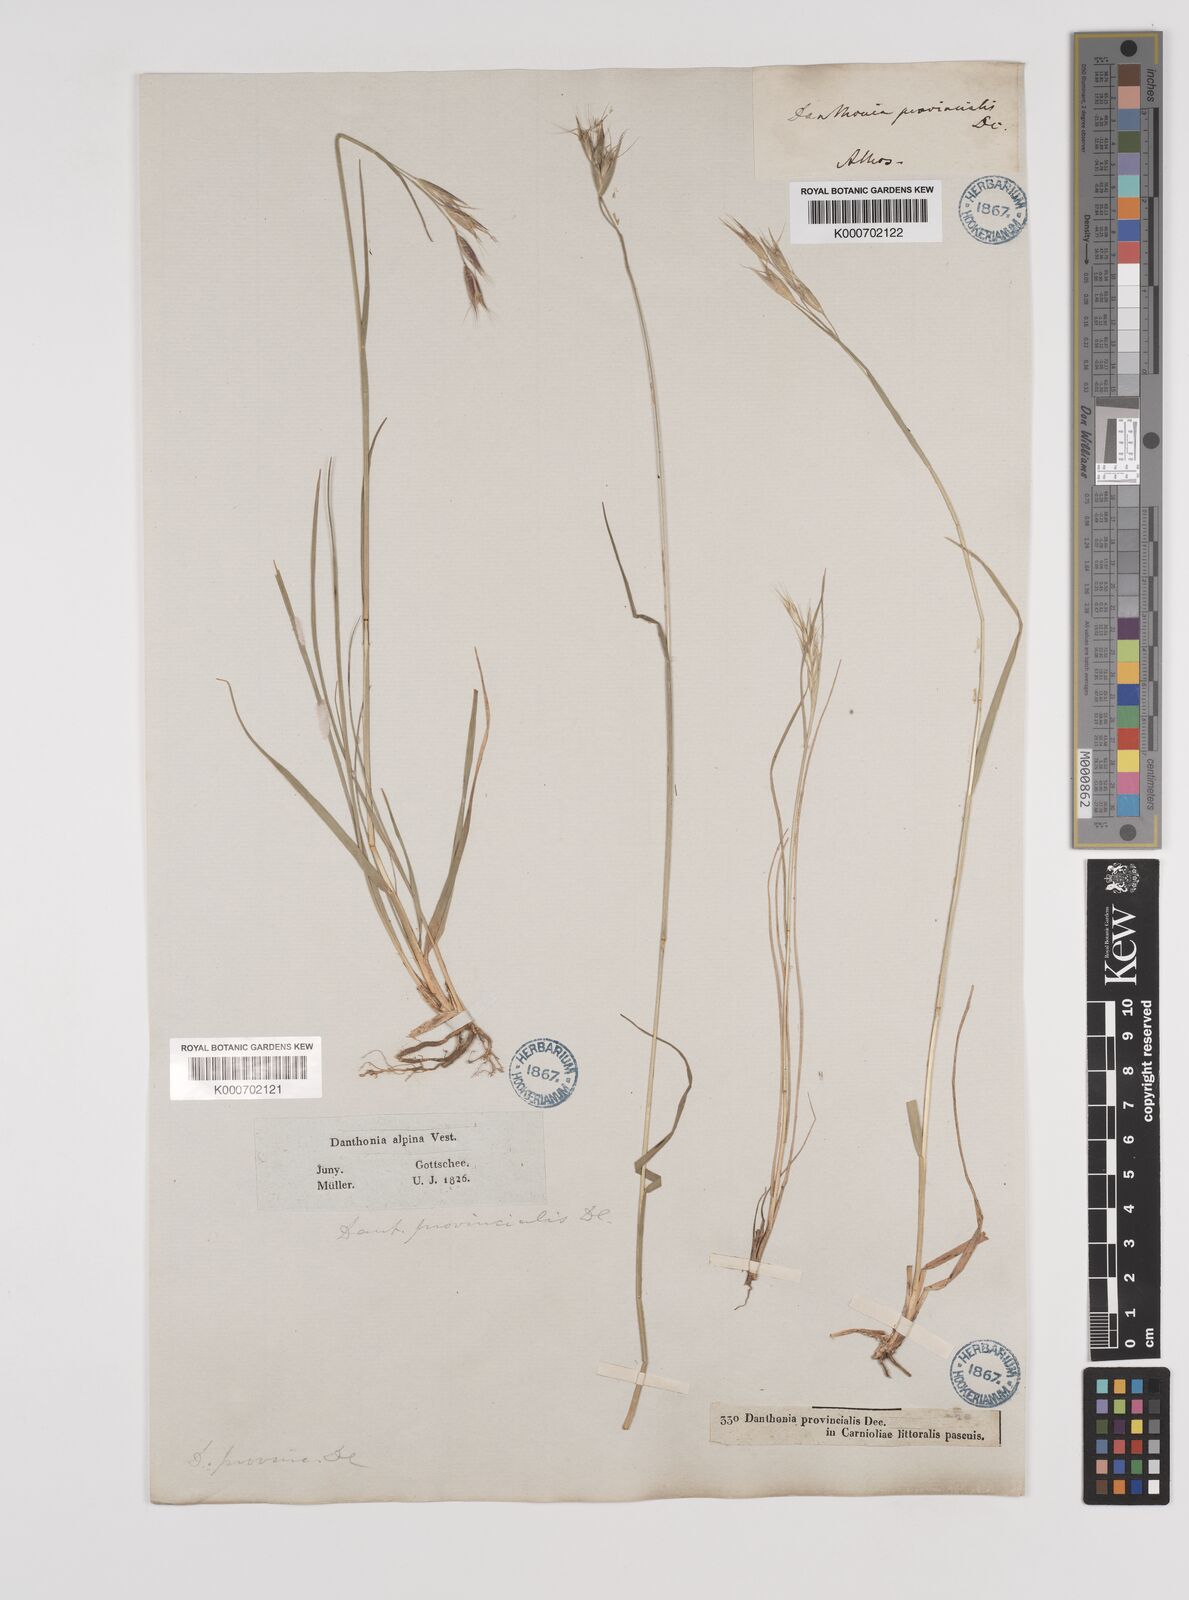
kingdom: Plantae
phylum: Tracheophyta
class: Liliopsida
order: Poales
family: Poaceae
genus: Danthonia
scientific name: Danthonia alpina
